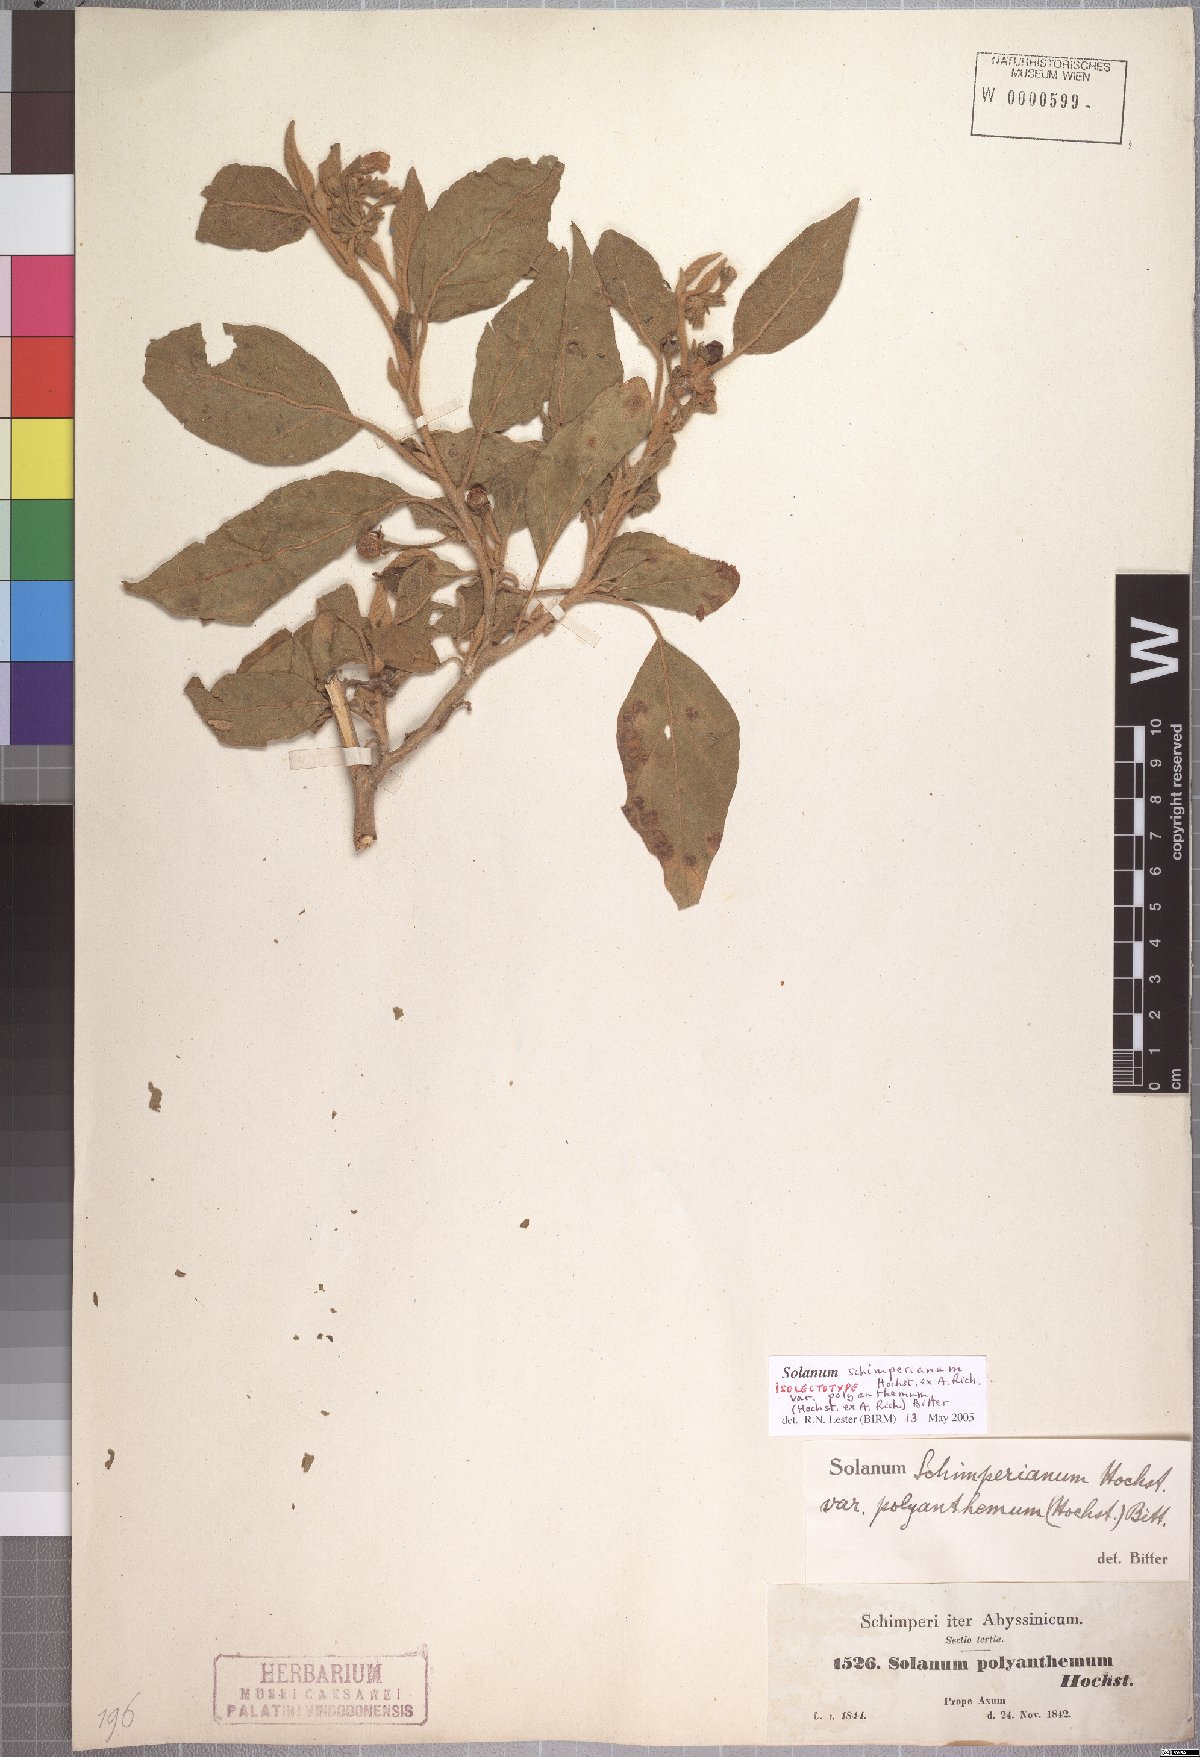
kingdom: Plantae
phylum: Tracheophyta
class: Magnoliopsida
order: Solanales
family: Solanaceae
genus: Solanum
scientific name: Solanum schimperianum
